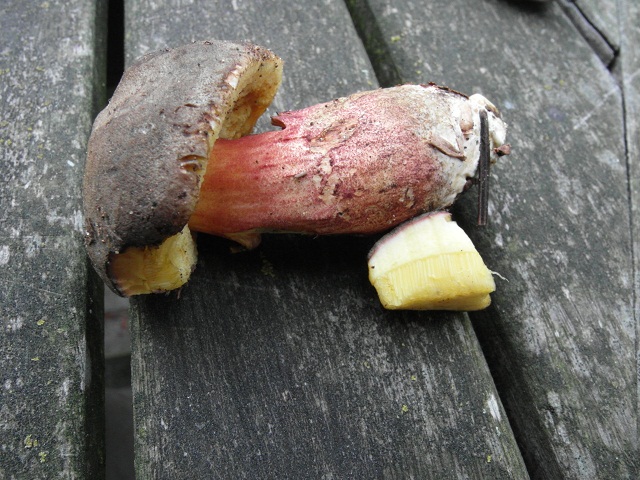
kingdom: Fungi
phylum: Basidiomycota
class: Agaricomycetes
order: Boletales
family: Boletaceae
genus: Xerocomellus
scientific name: Xerocomellus pruinatus
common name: dugget rørhat
